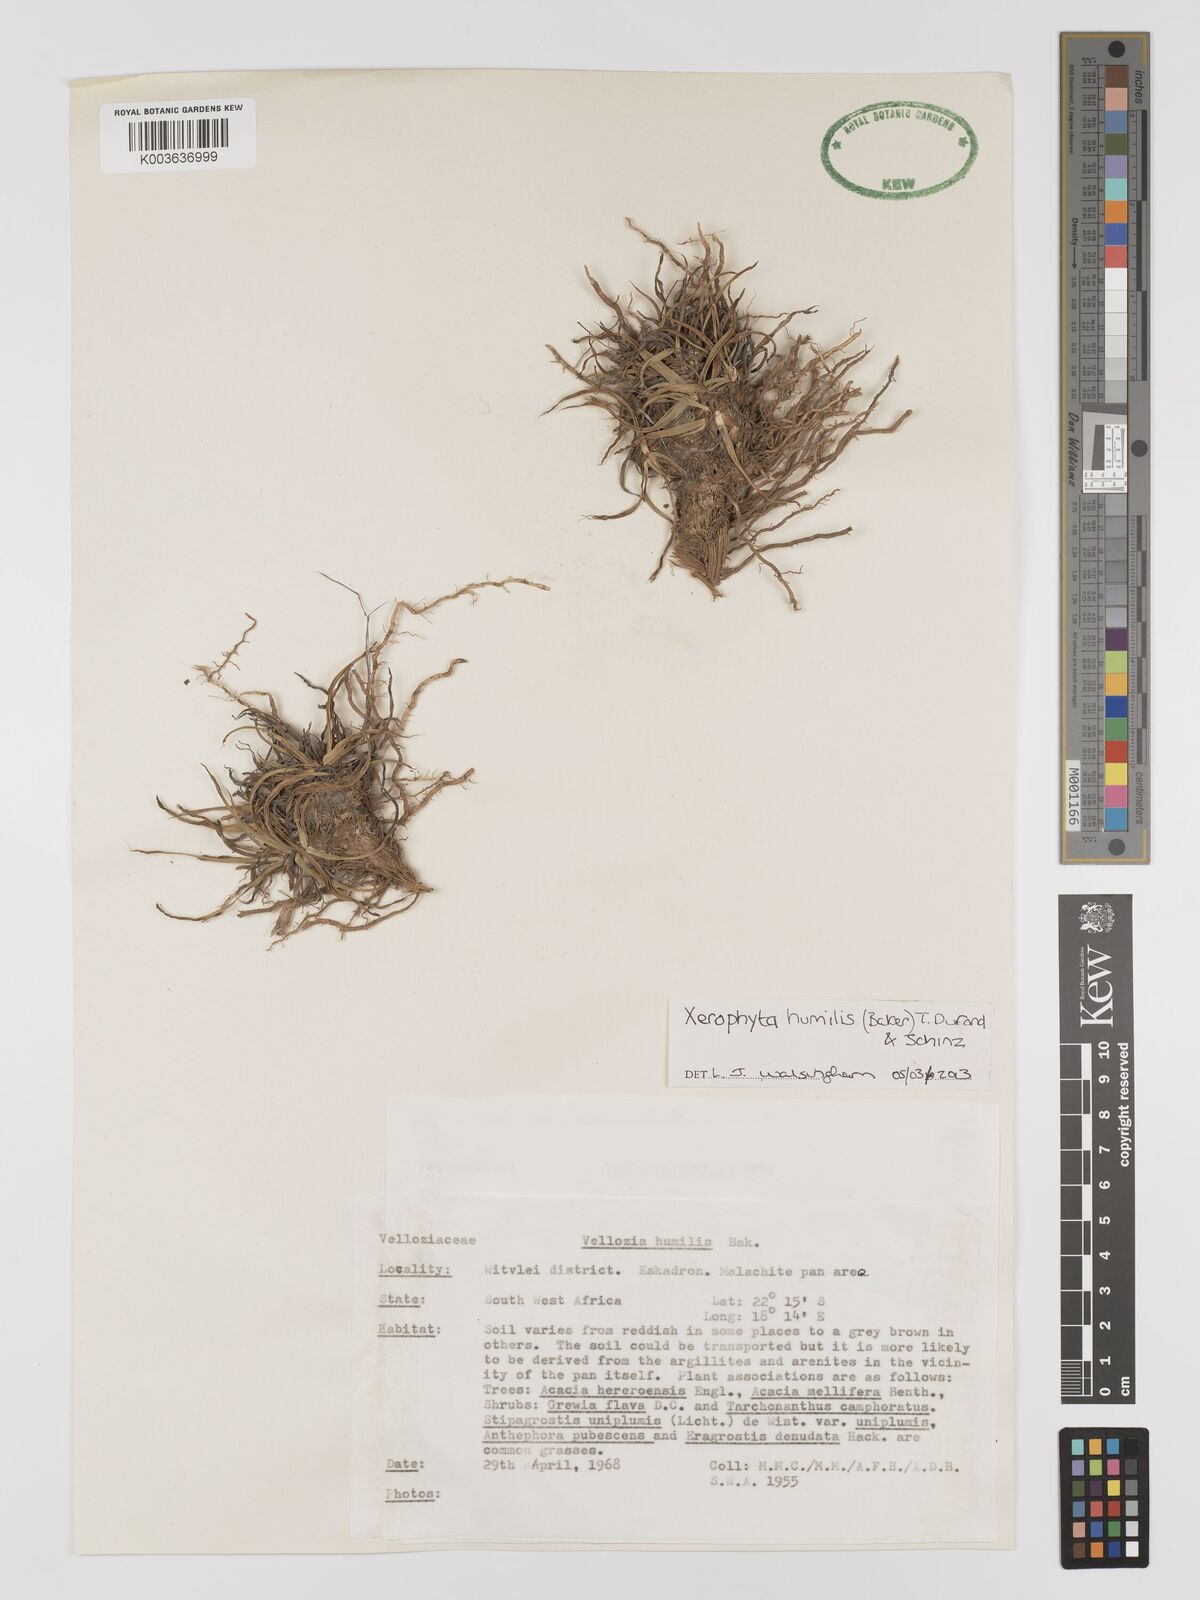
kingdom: Plantae
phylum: Tracheophyta
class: Liliopsida
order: Pandanales
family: Velloziaceae
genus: Xerophyta
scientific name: Xerophyta humilis
